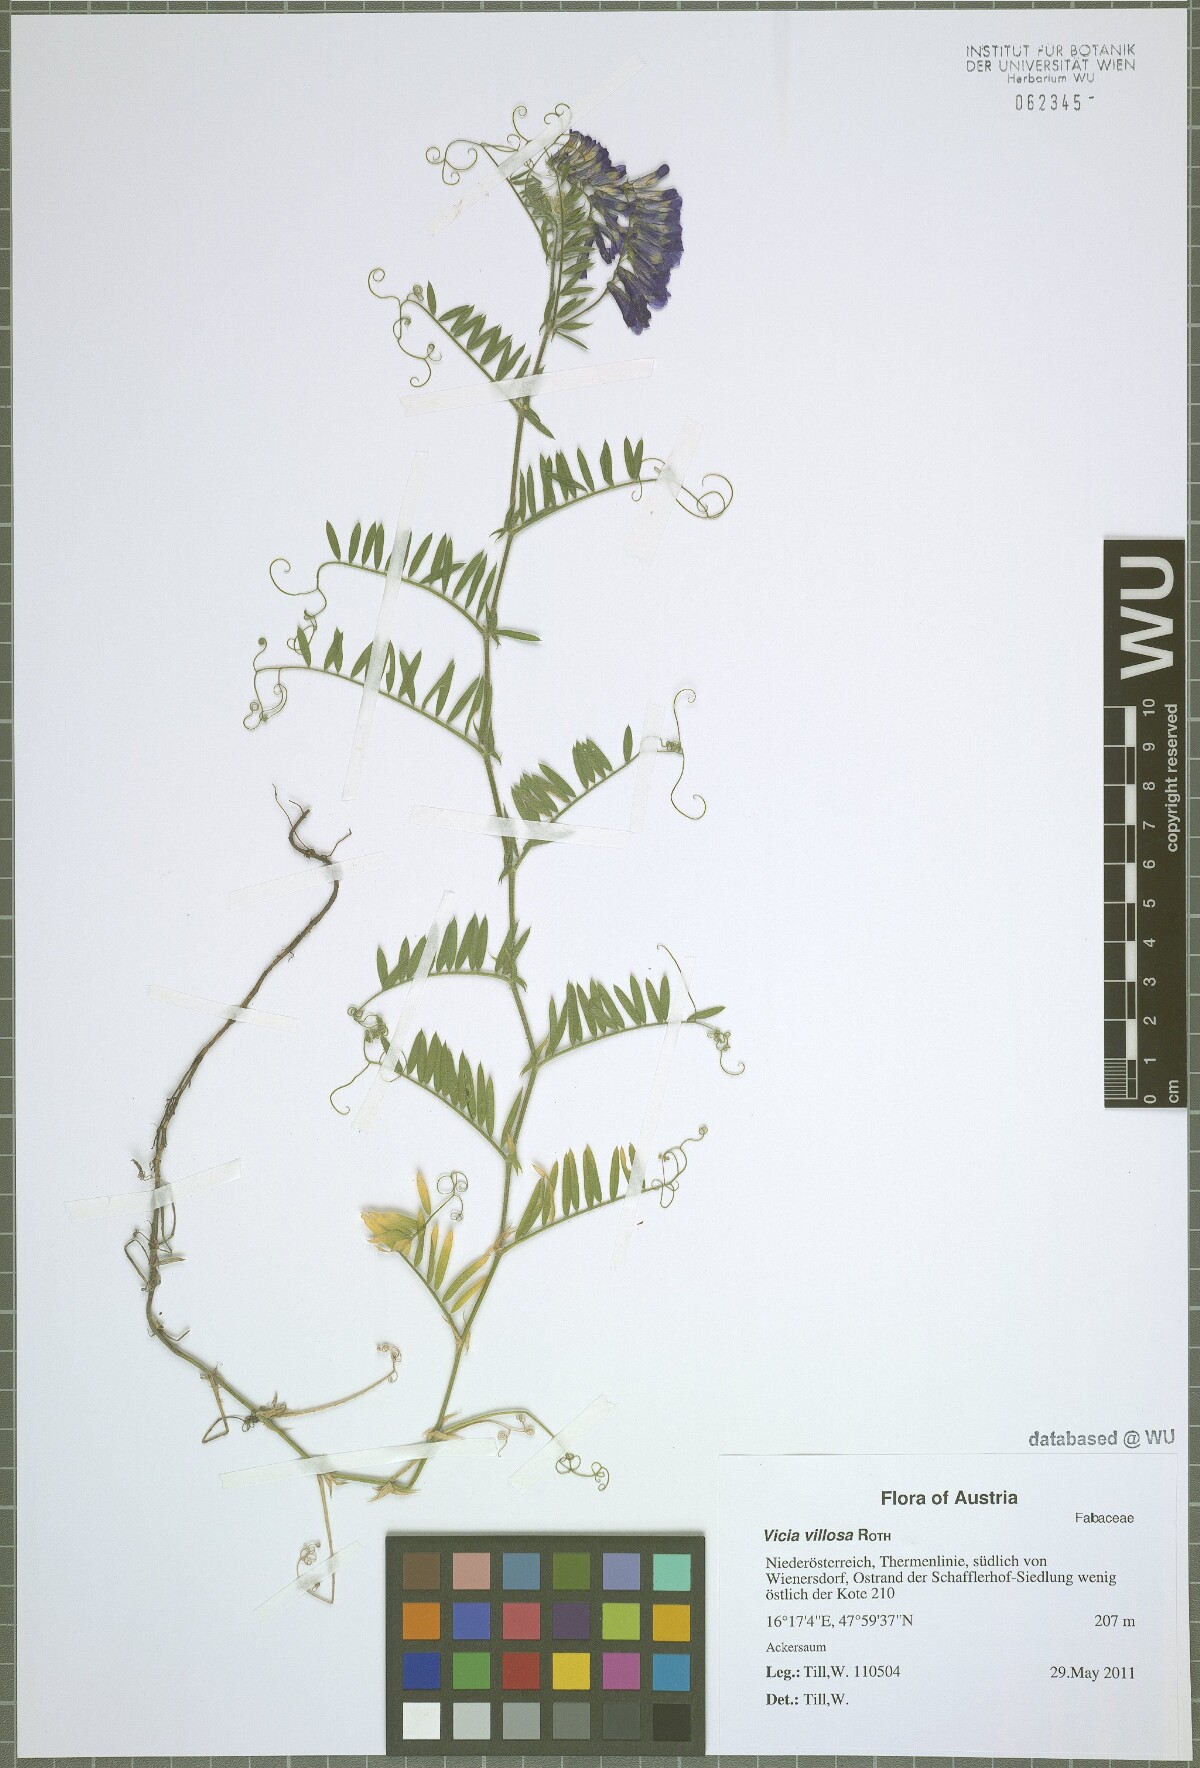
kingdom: Plantae
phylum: Tracheophyta
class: Magnoliopsida
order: Fabales
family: Fabaceae
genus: Vicia
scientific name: Vicia villosa
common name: Fodder vetch
